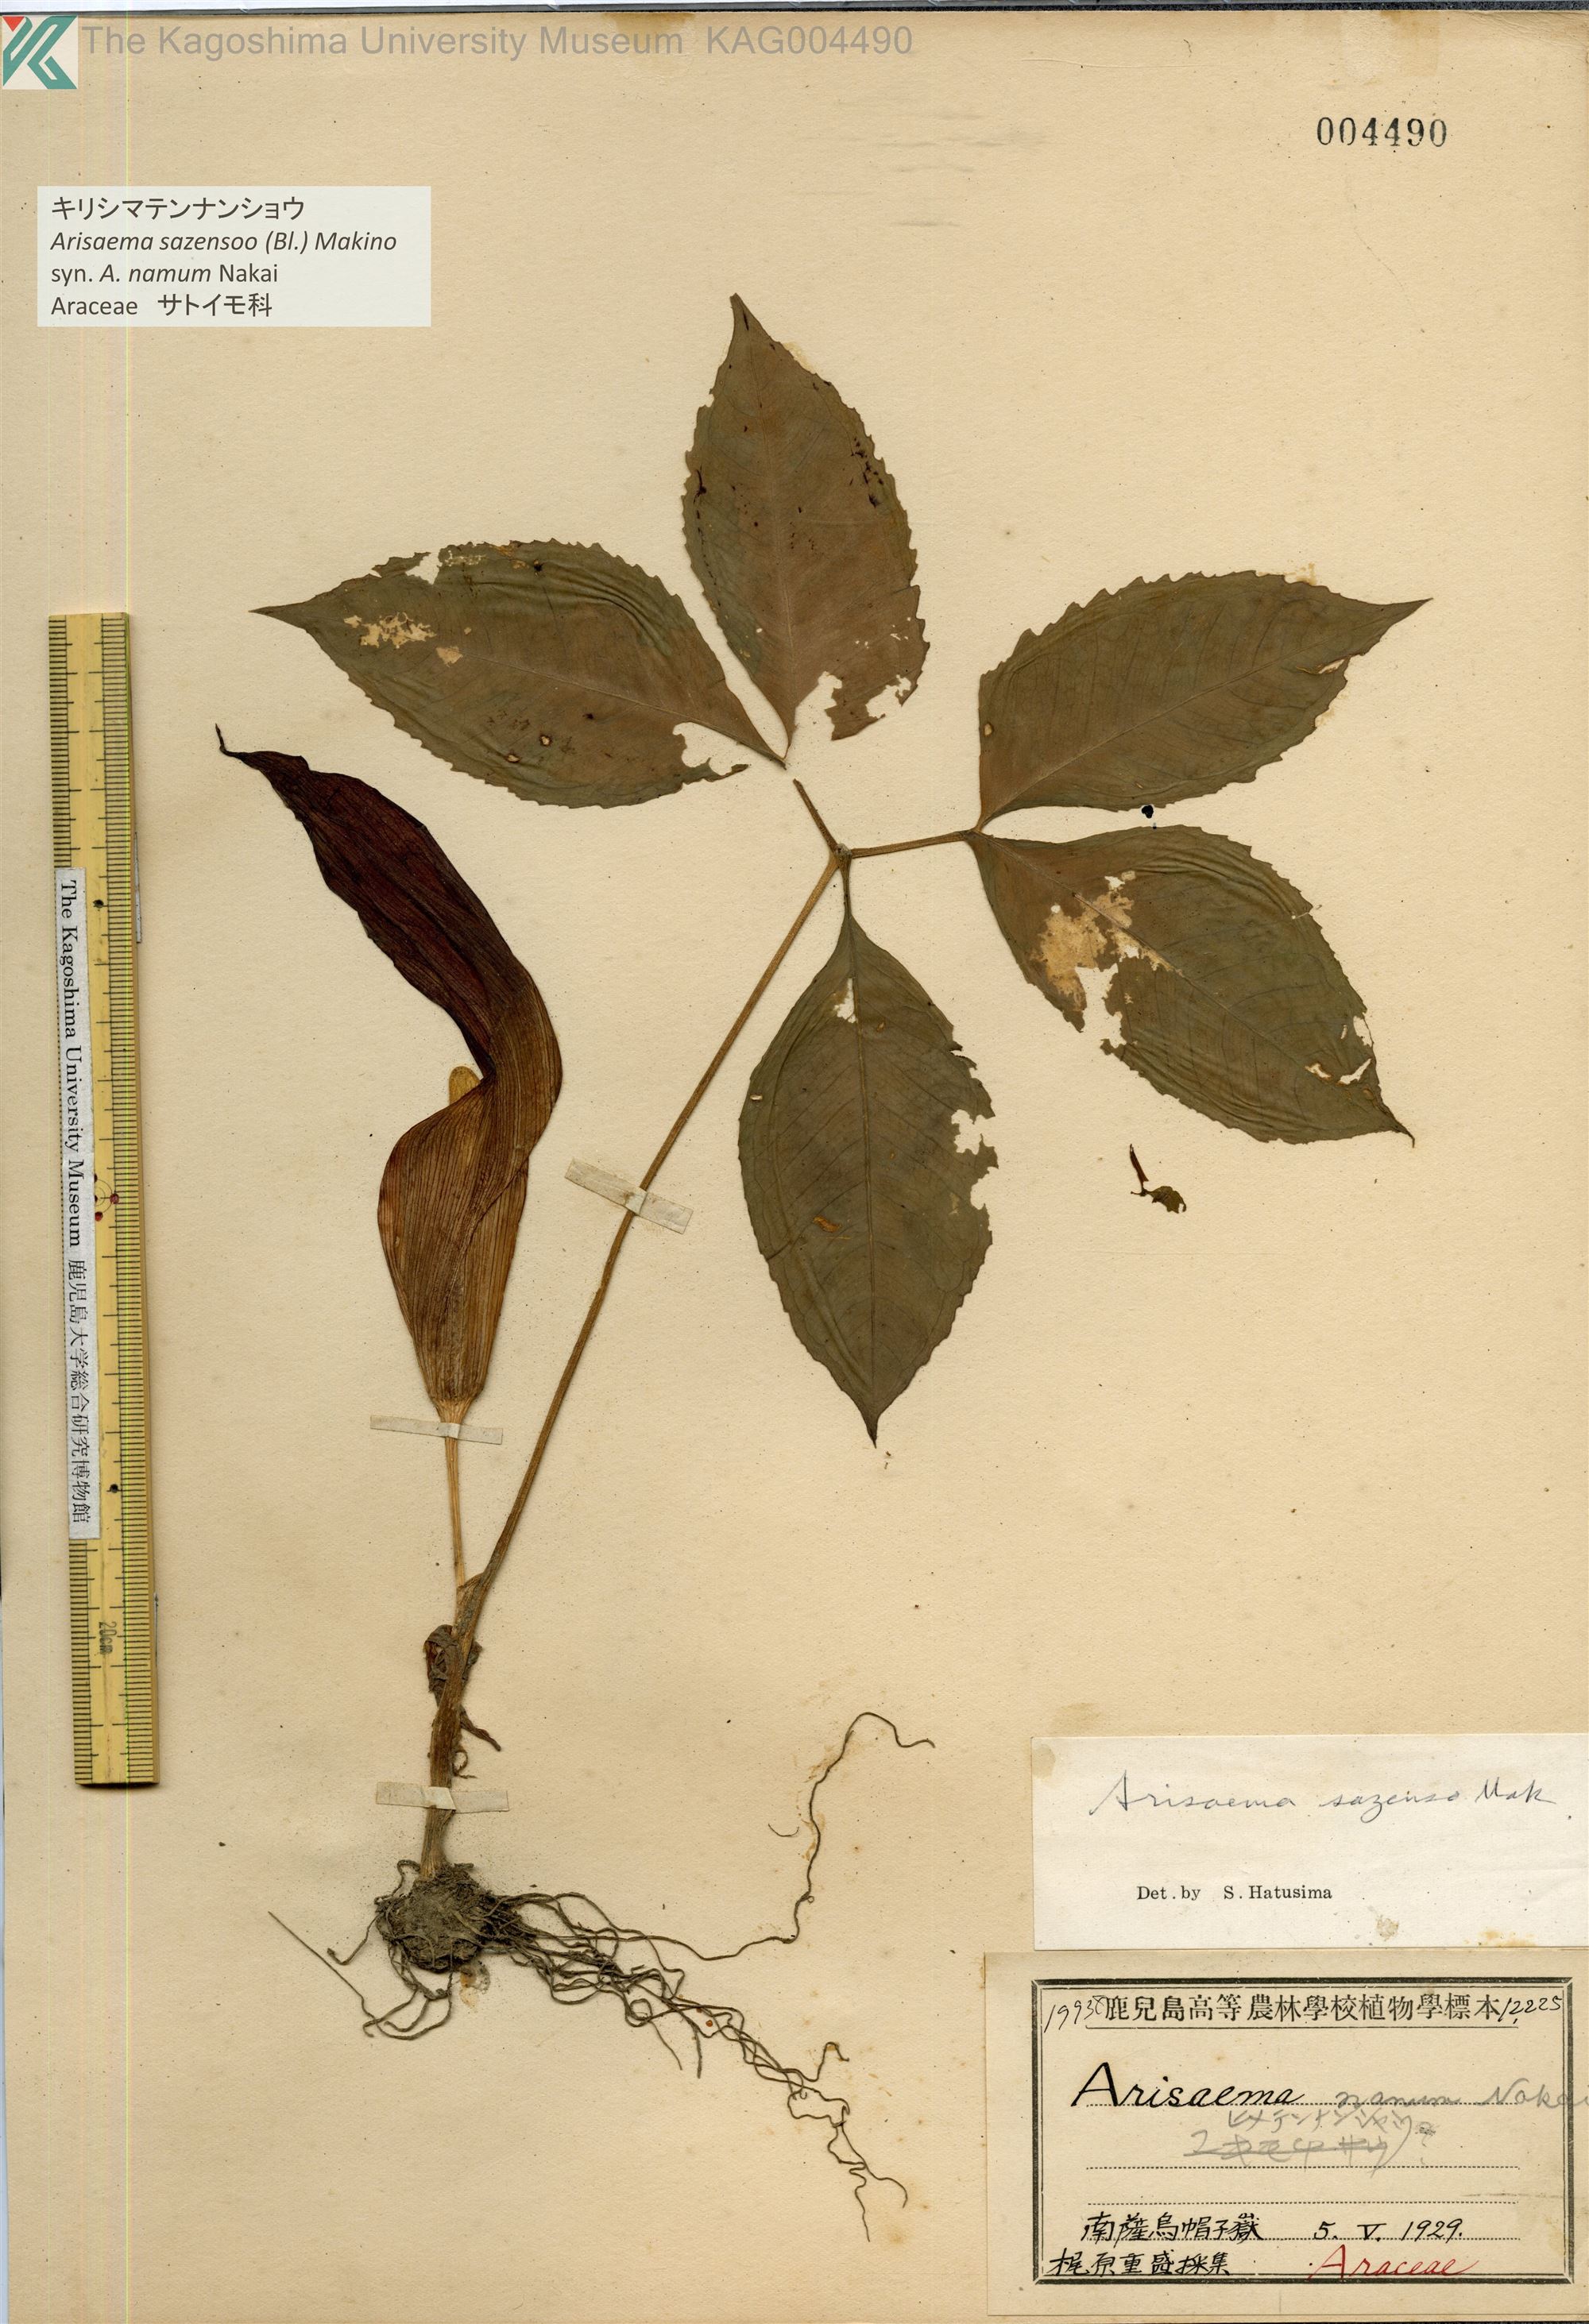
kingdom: Plantae
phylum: Tracheophyta
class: Liliopsida
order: Alismatales
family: Araceae
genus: Arisaema
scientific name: Arisaema sazensoo
